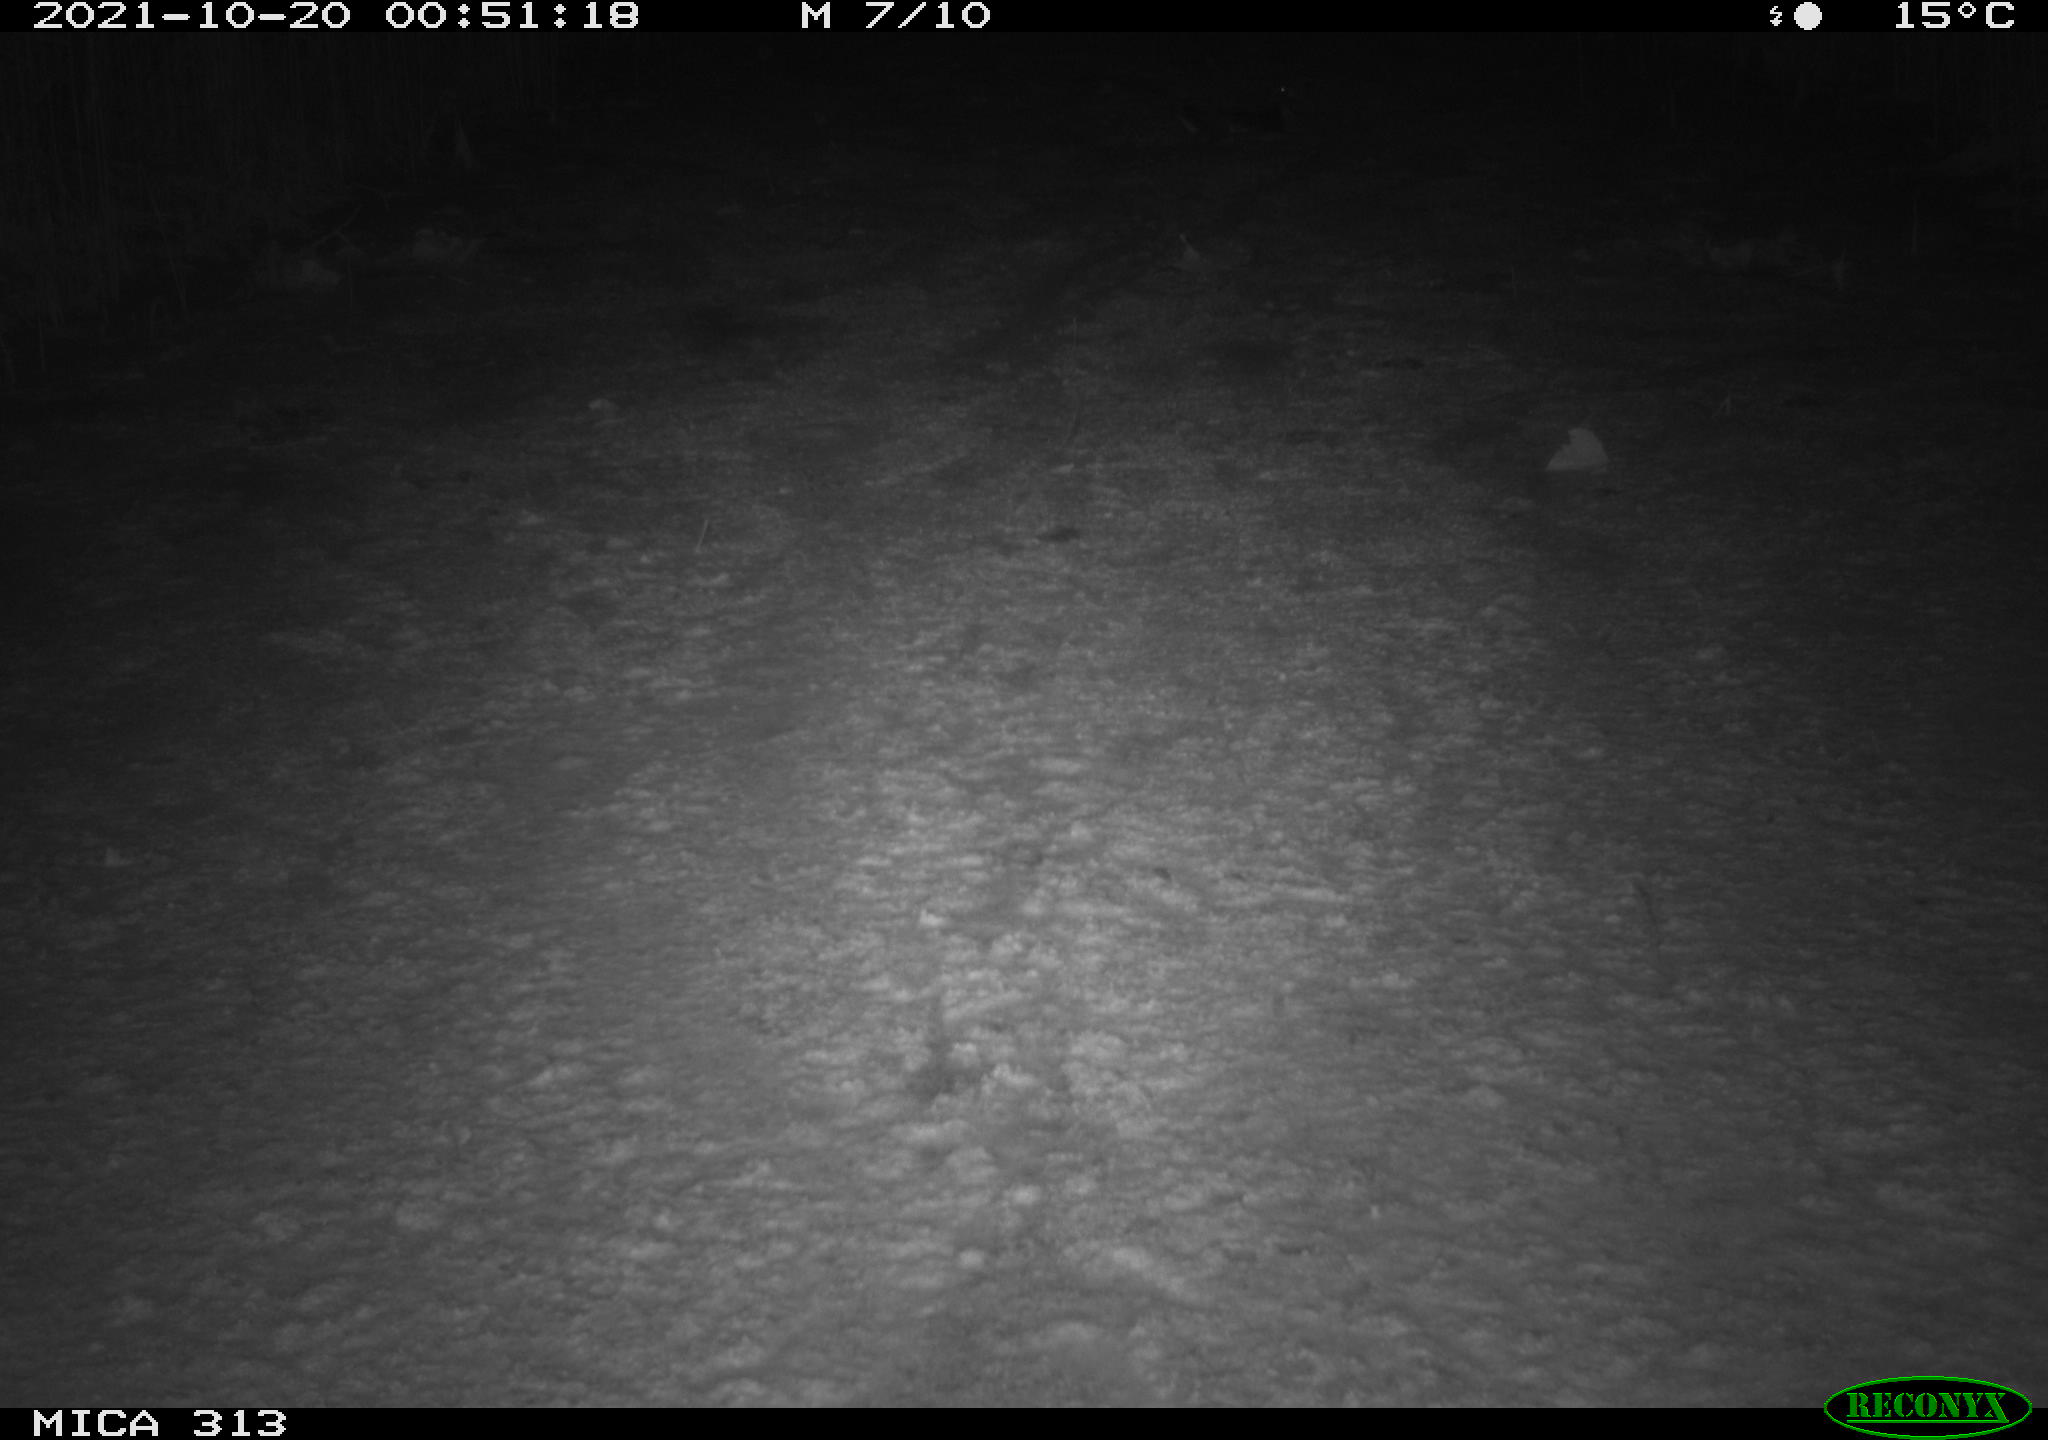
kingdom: Animalia
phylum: Chordata
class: Aves
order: Gruiformes
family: Rallidae
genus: Gallinula
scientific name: Gallinula chloropus
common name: Common moorhen
